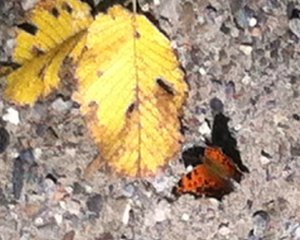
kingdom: Animalia
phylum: Arthropoda
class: Insecta
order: Lepidoptera
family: Nymphalidae
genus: Polygonia
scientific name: Polygonia comma
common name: Eastern Comma
